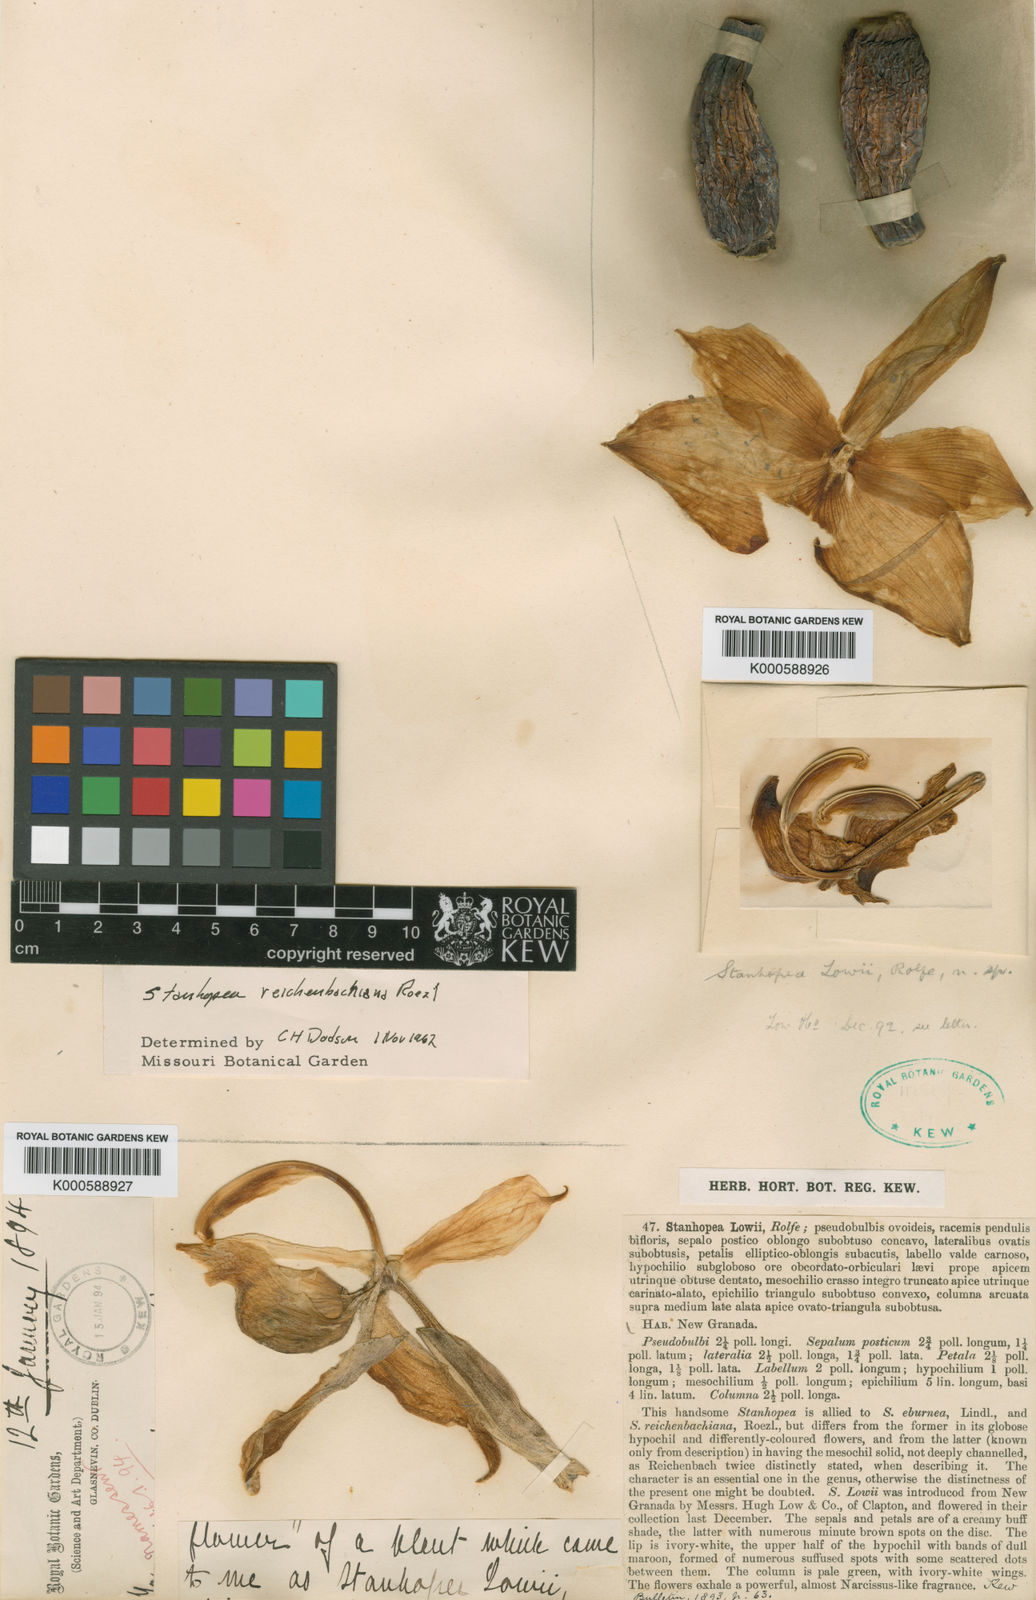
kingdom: Plantae
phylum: Tracheophyta
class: Liliopsida
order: Asparagales
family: Orchidaceae
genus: Stanhopea
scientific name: Stanhopea reichenbachiana
